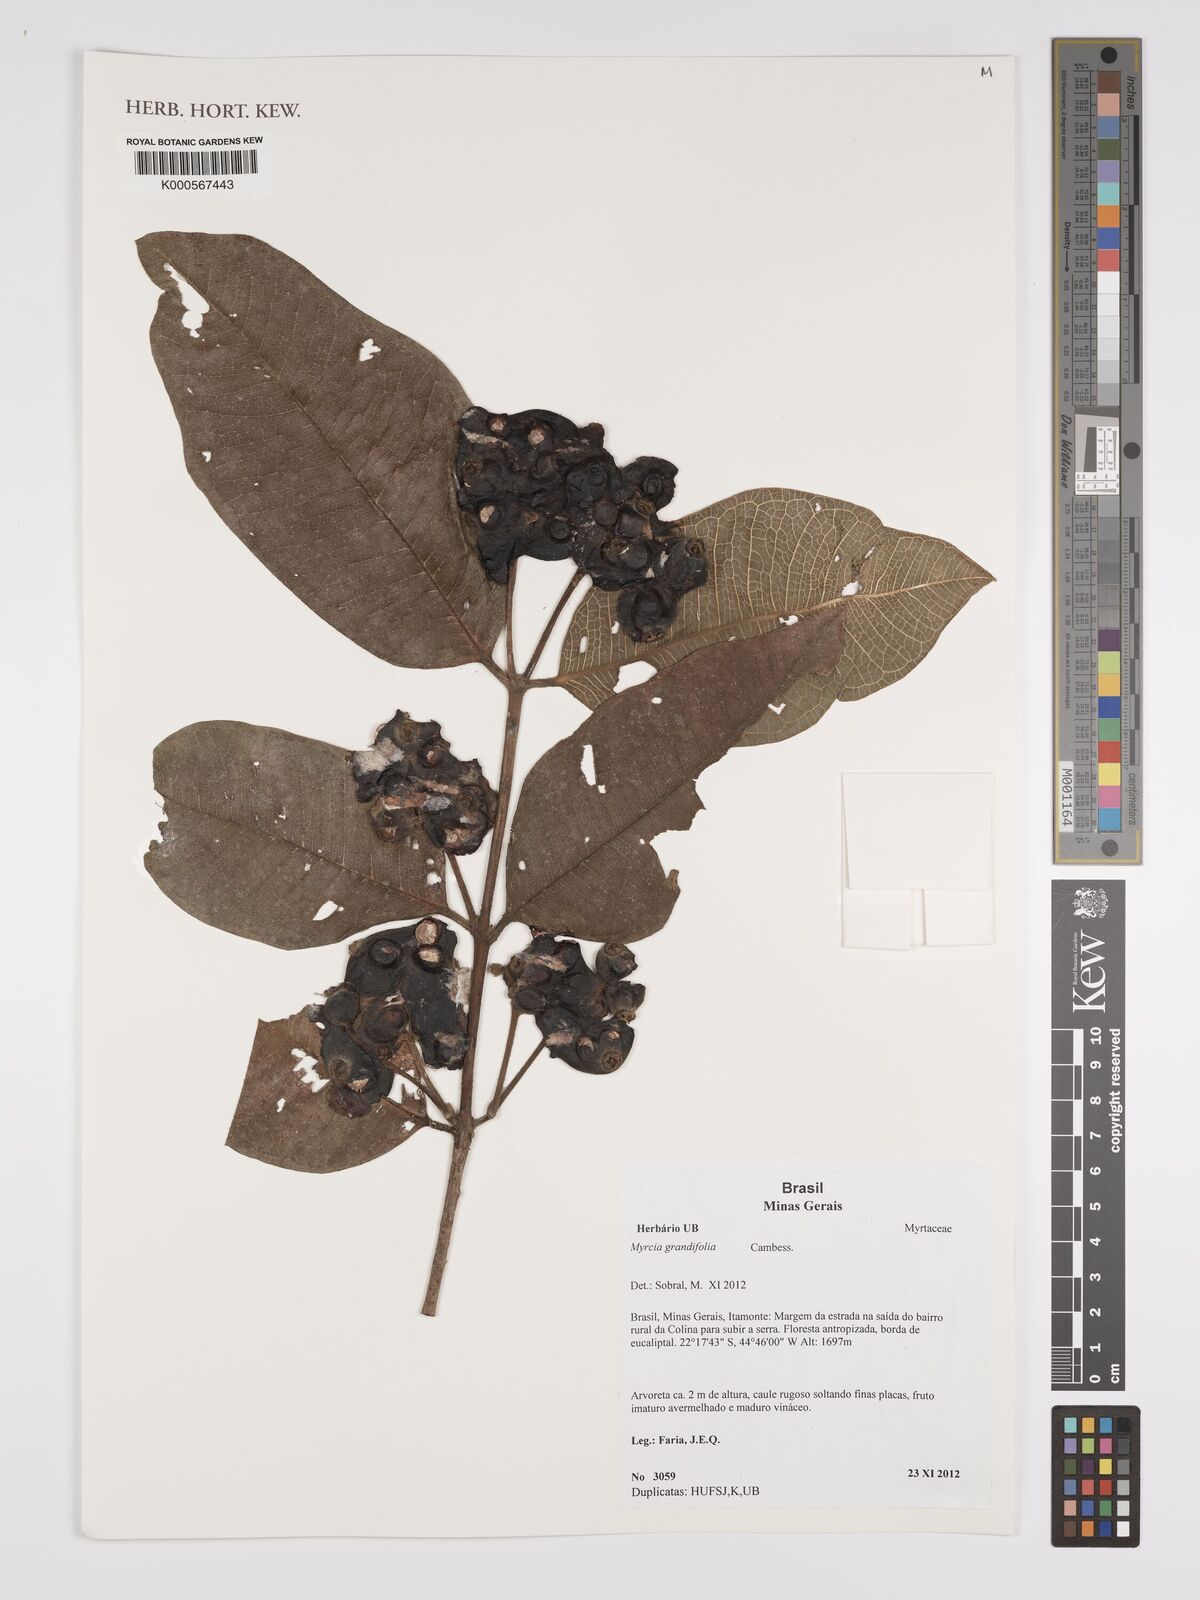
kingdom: Plantae
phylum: Tracheophyta
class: Magnoliopsida
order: Myrtales
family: Myrtaceae
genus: Myrcia
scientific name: Myrcia grandifolia
